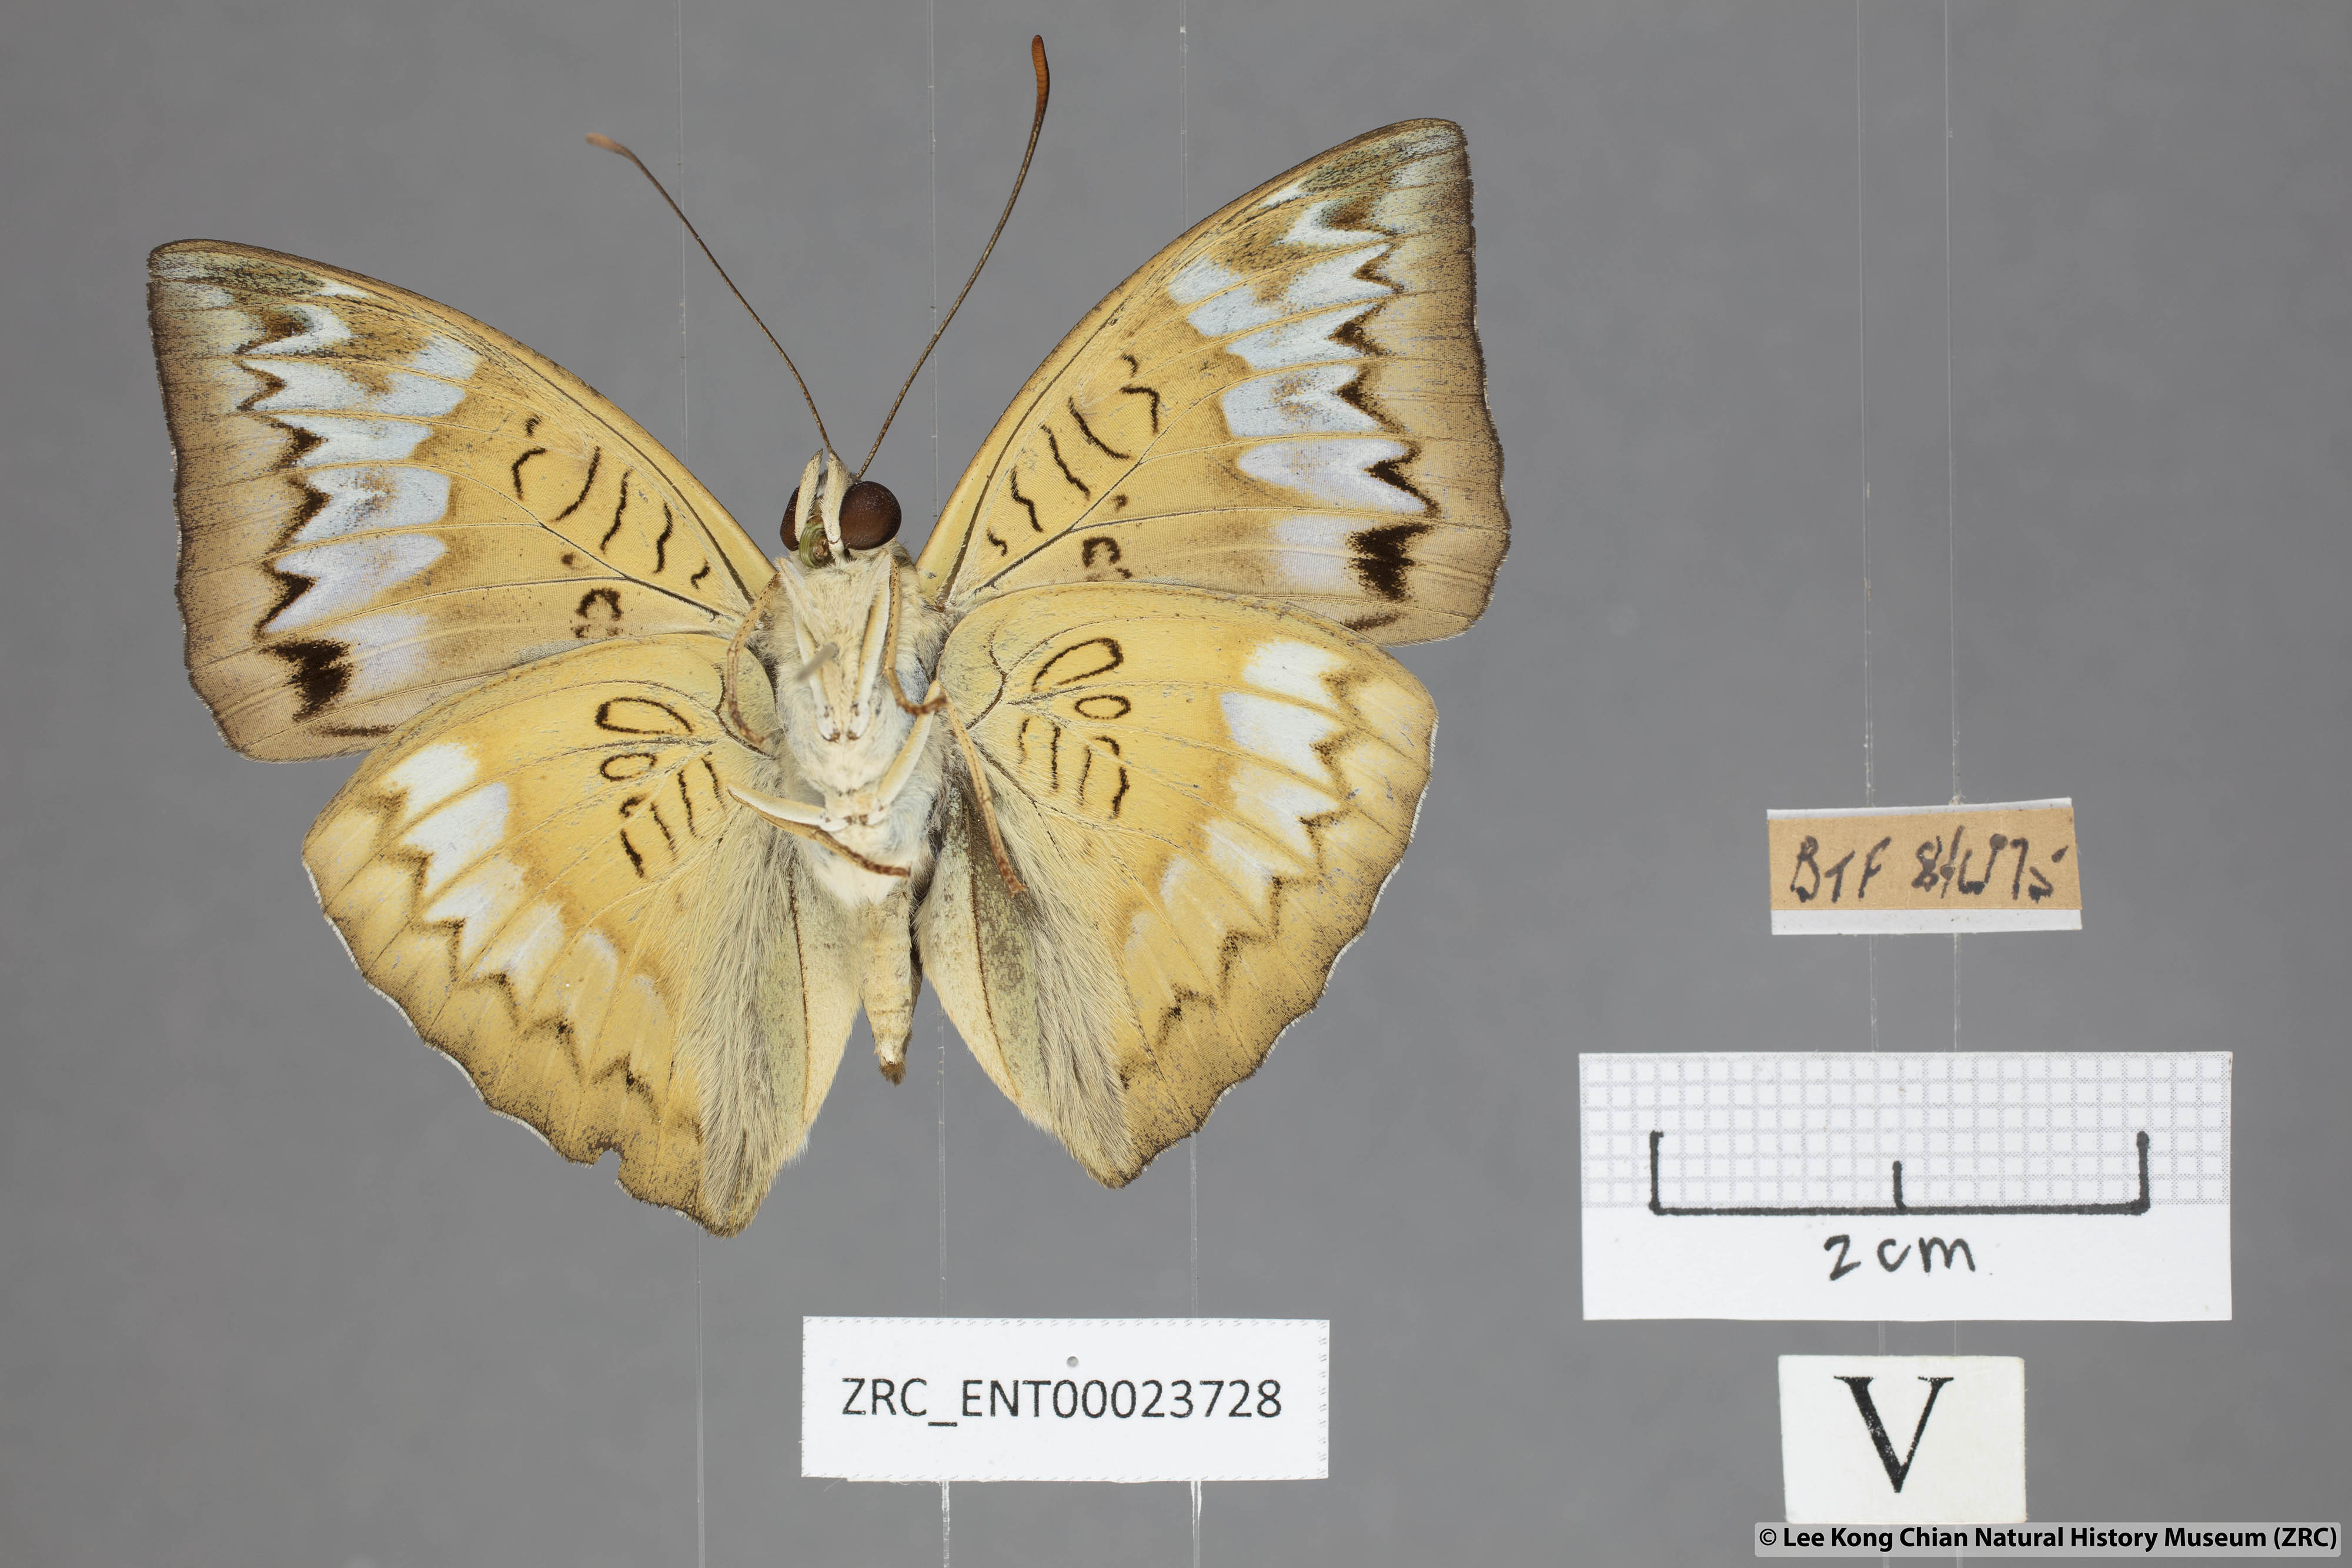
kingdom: Animalia
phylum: Arthropoda
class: Insecta
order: Lepidoptera
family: Nymphalidae
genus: Euthalia
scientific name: Euthalia monina
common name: Powdered baron
